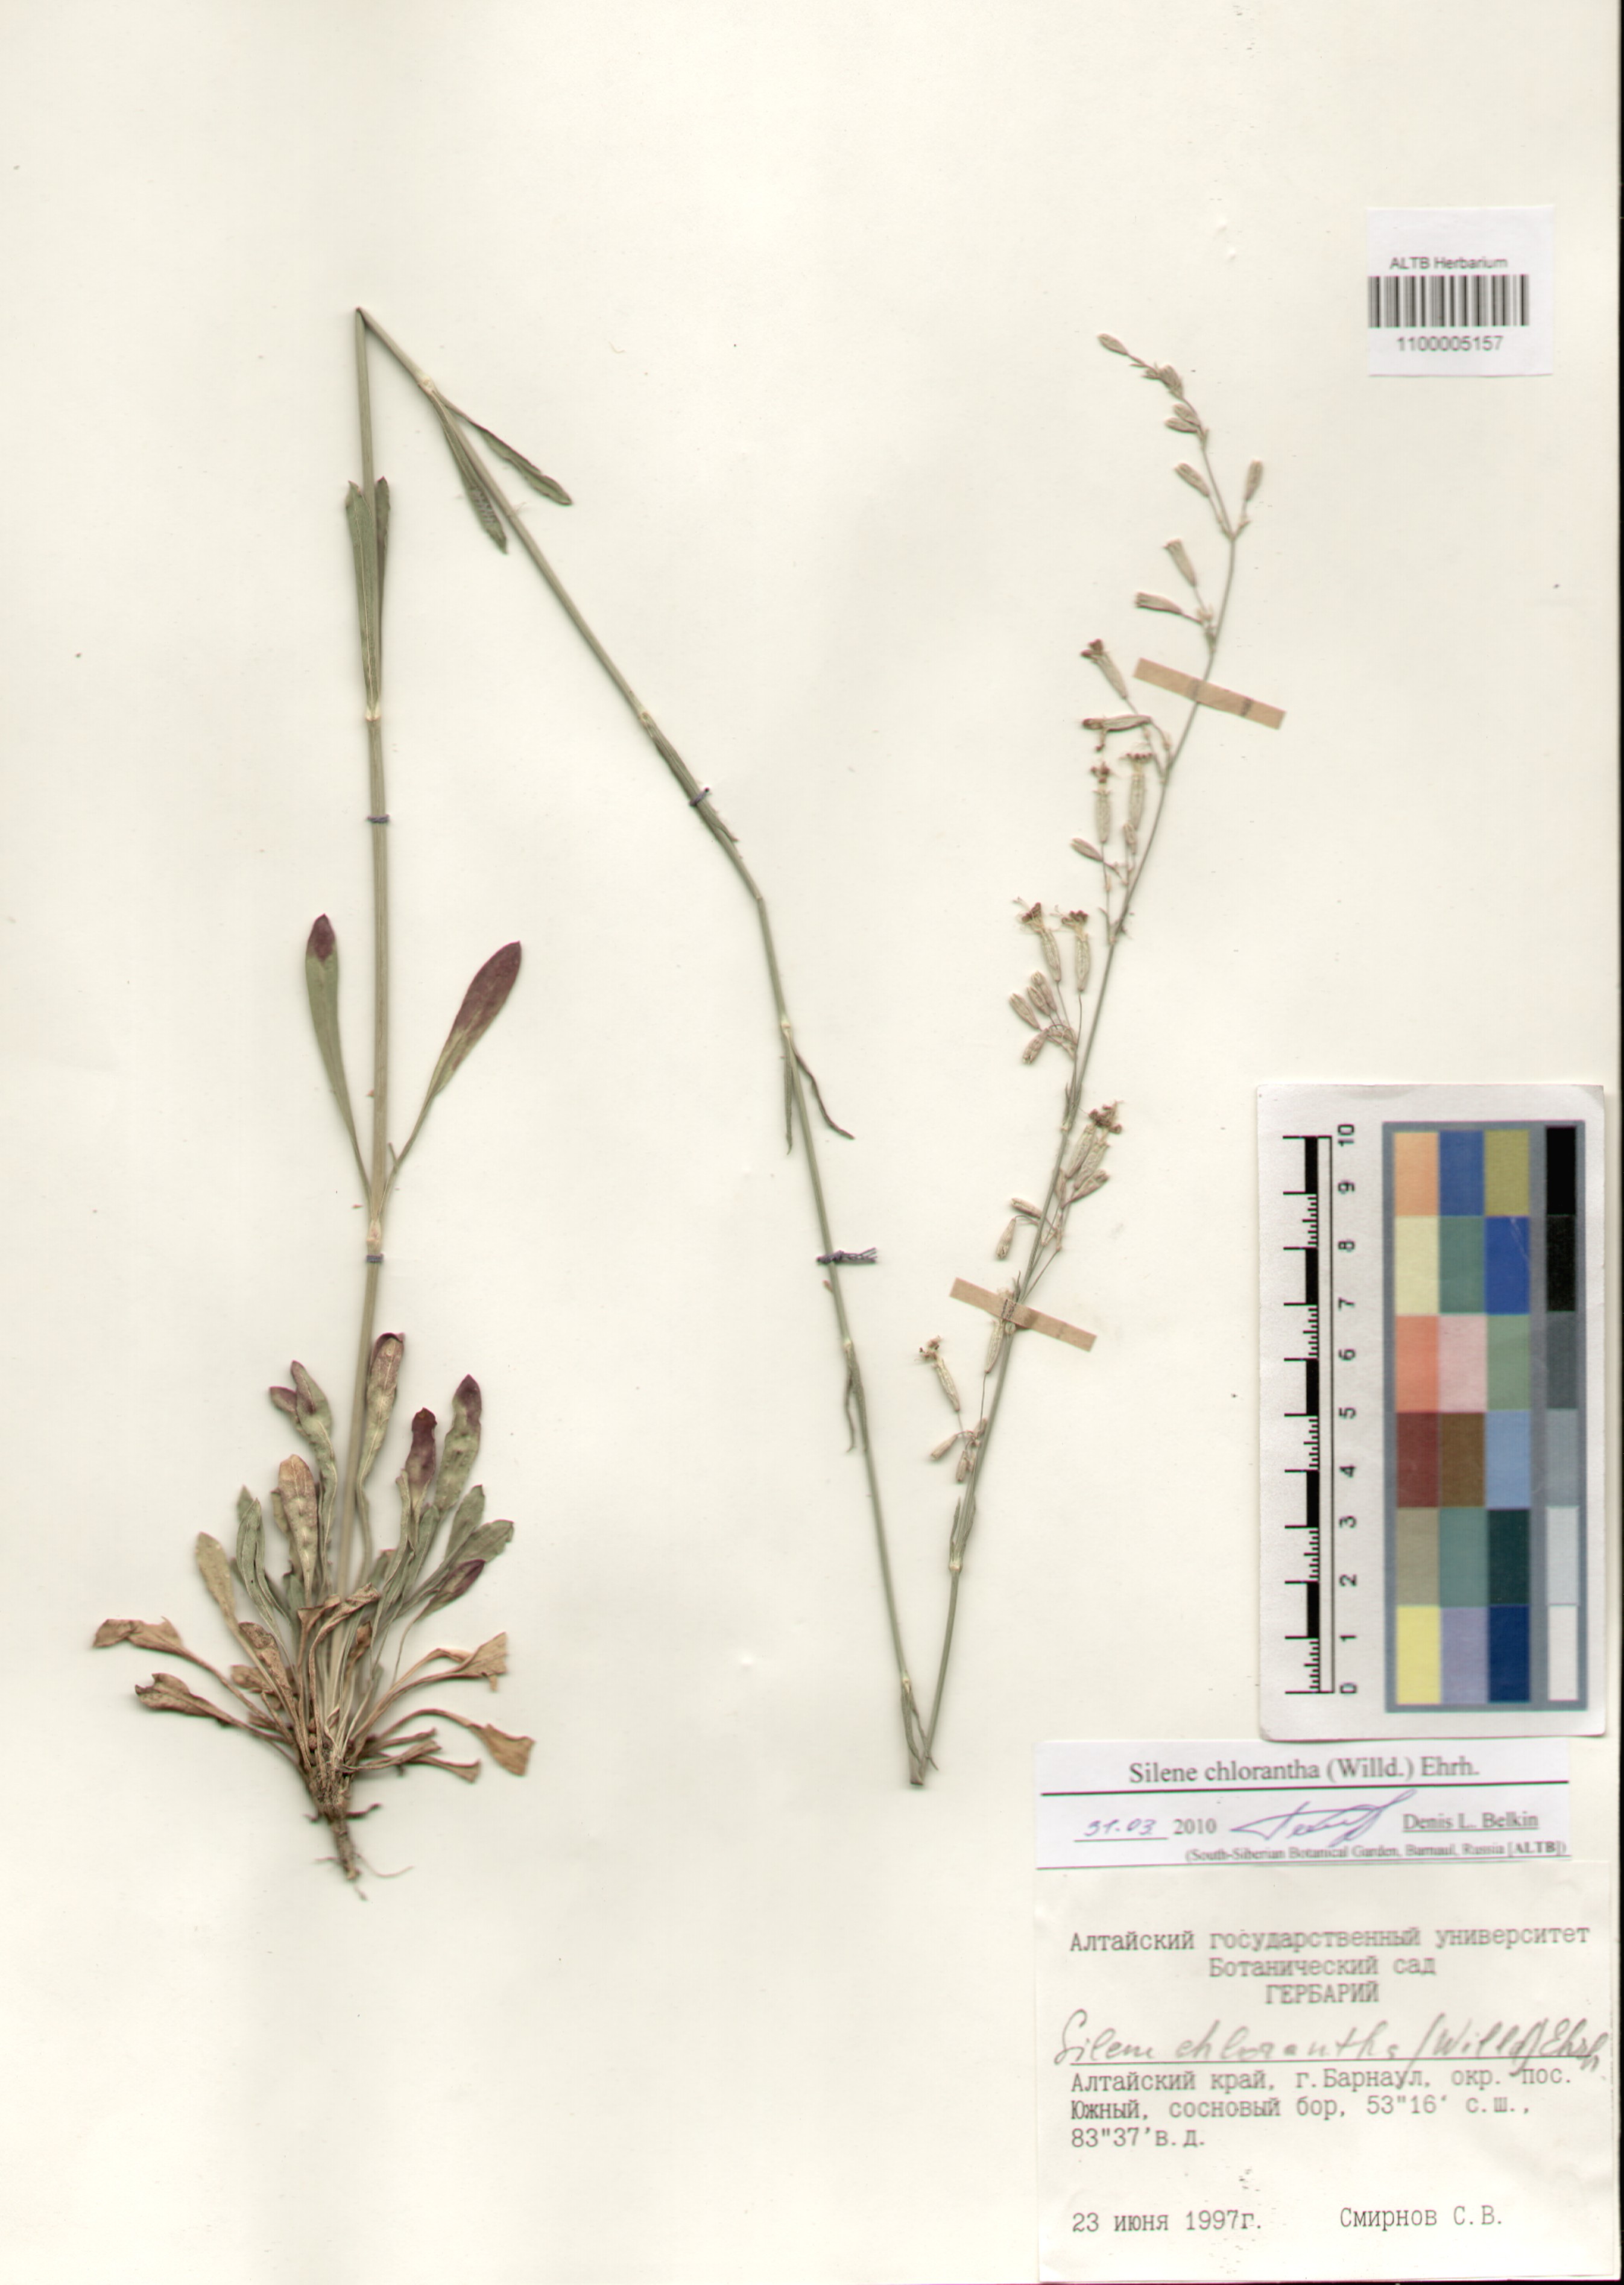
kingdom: Plantae
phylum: Tracheophyta
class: Magnoliopsida
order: Caryophyllales
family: Caryophyllaceae
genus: Silene
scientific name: Silene chlorantha
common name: Yellowgreen catchfly
